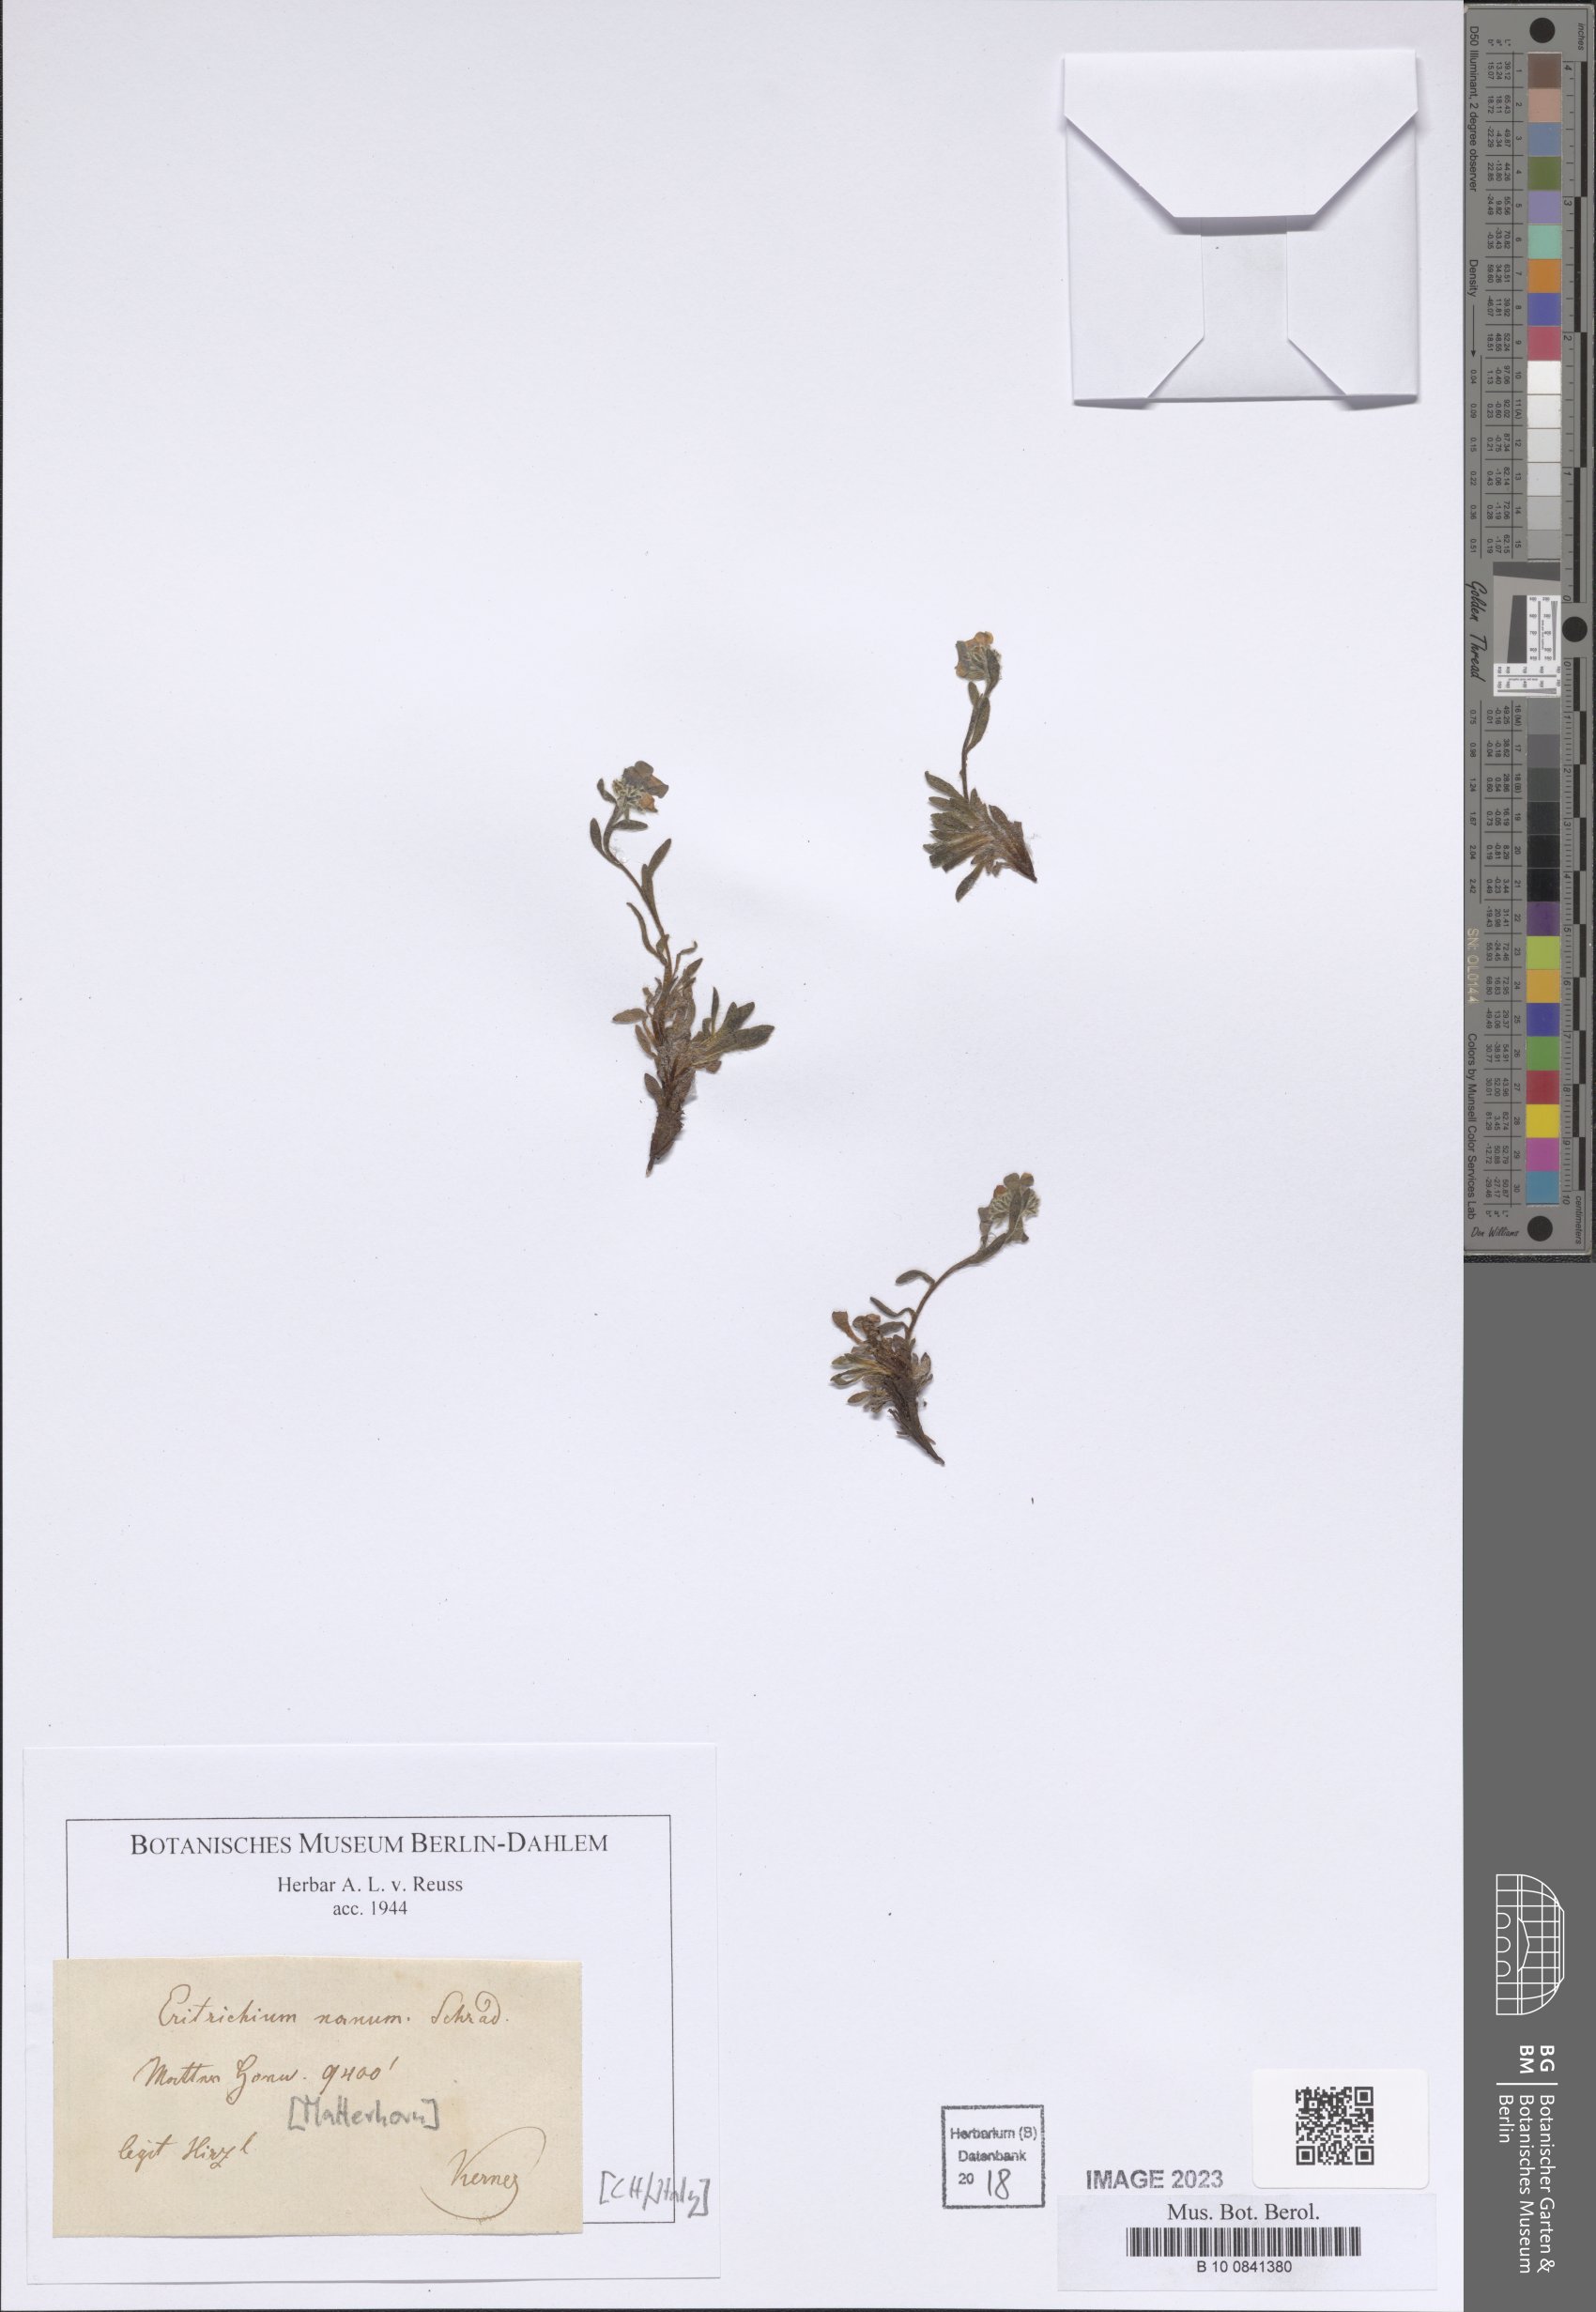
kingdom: Plantae
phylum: Tracheophyta
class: Magnoliopsida
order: Boraginales
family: Boraginaceae
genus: Eritrichium
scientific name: Eritrichium nanum
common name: King-of-the-alps
